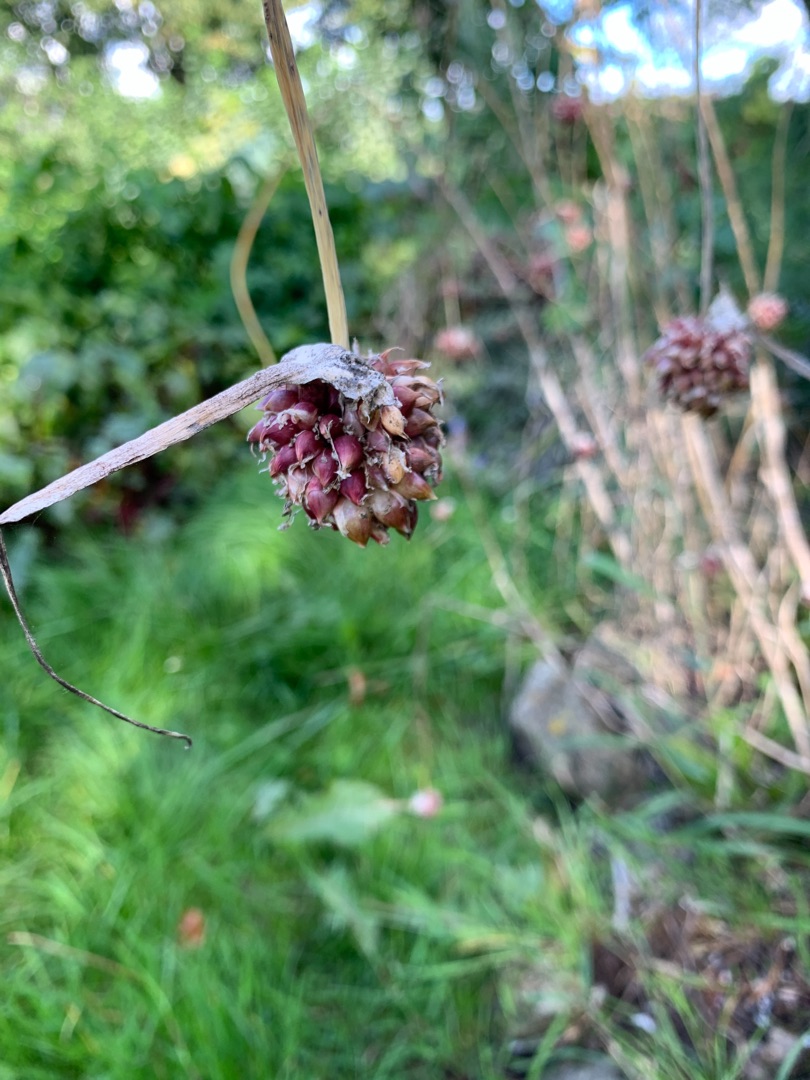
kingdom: Plantae
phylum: Tracheophyta
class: Liliopsida
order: Asparagales
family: Amaryllidaceae
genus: Allium
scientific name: Allium oleraceum
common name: Vild løg
